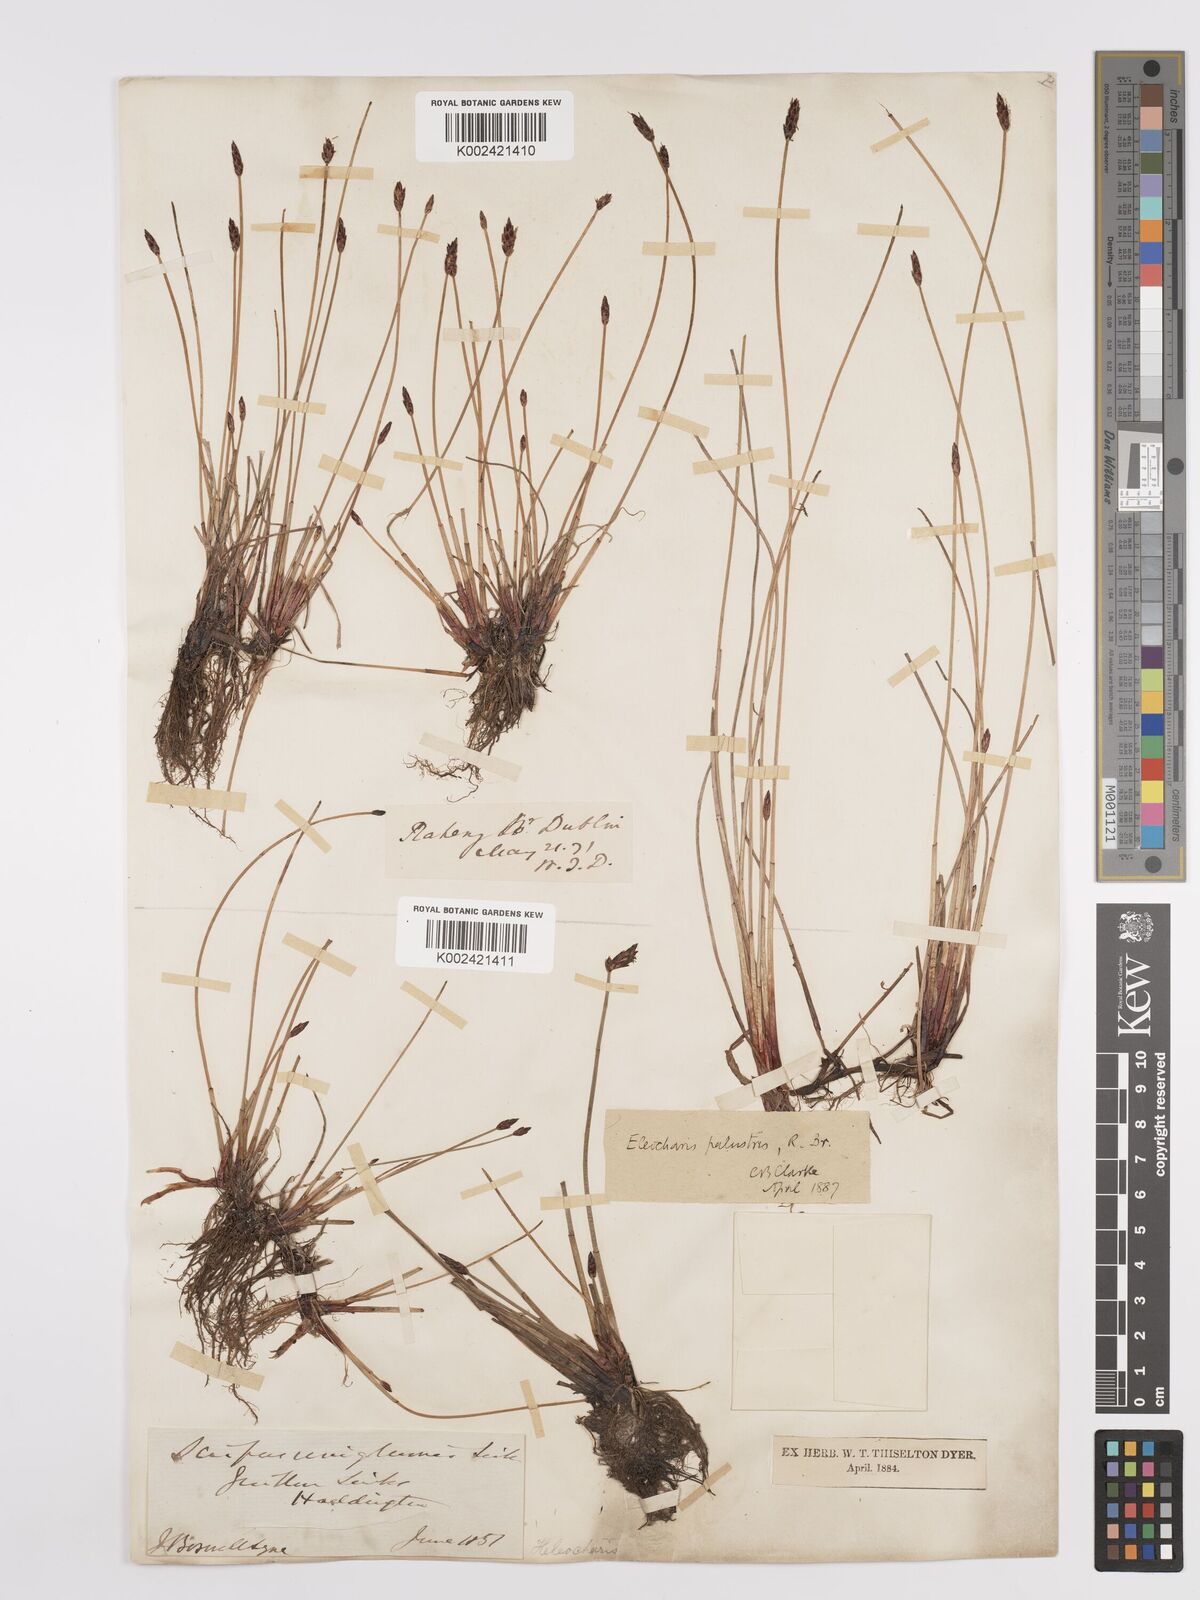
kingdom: Plantae
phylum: Tracheophyta
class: Liliopsida
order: Poales
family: Cyperaceae
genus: Eleocharis
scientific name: Eleocharis uniglumis
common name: Slender spike-rush
